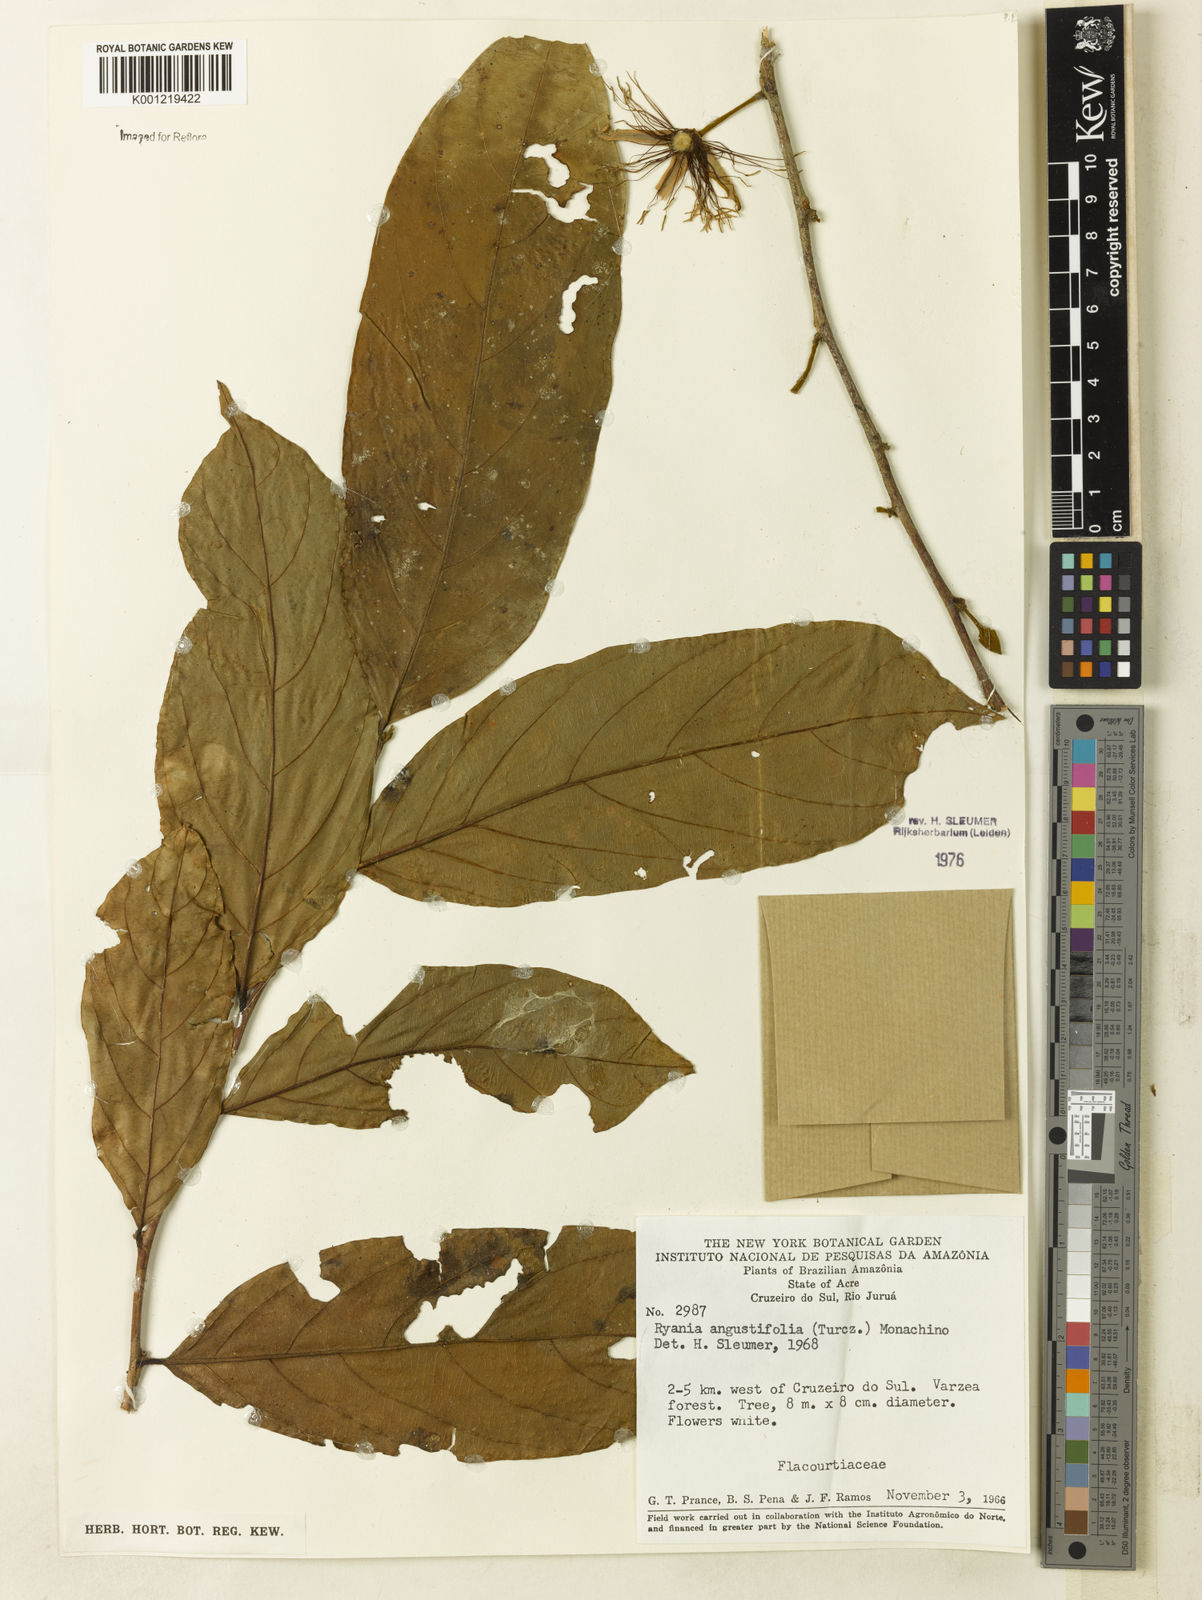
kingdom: Plantae
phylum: Tracheophyta
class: Magnoliopsida
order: Malpighiales
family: Salicaceae
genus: Ryania
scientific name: Ryania angustifolia
